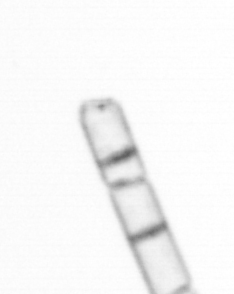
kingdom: Chromista
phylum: Ochrophyta
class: Bacillariophyceae
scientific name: Bacillariophyceae
